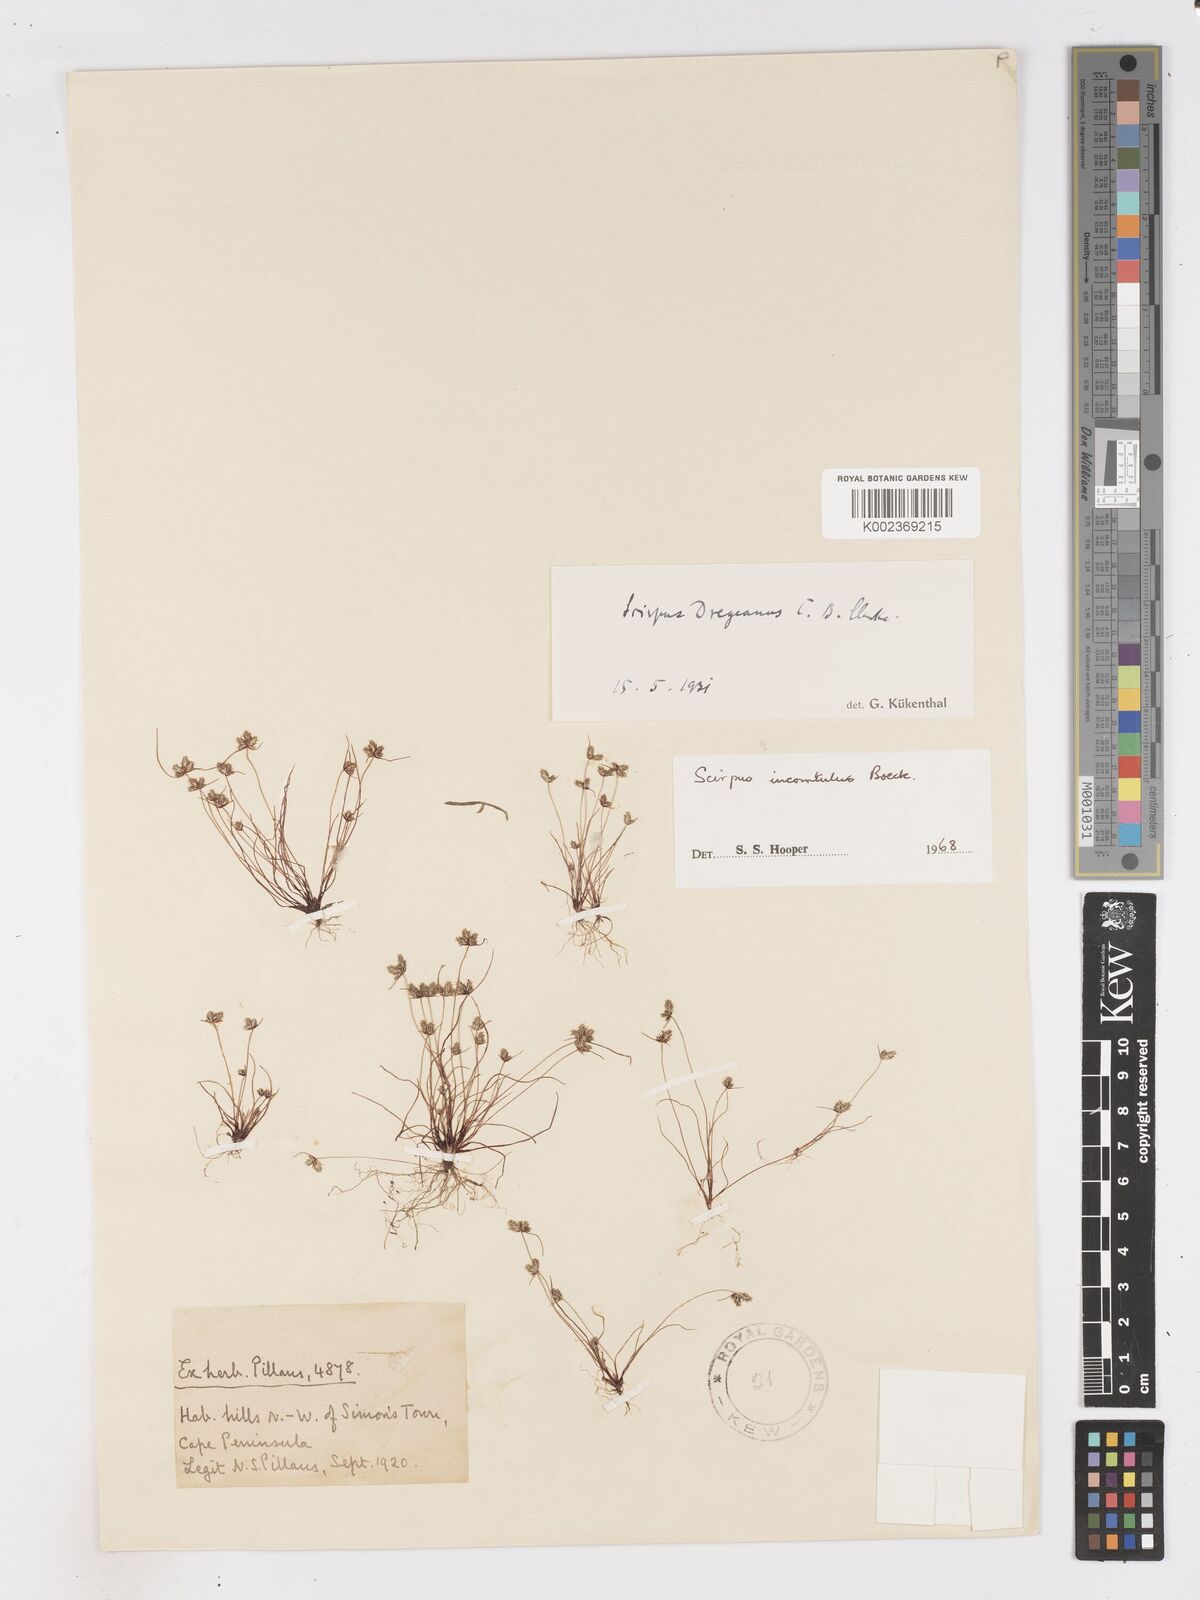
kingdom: Plantae
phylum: Tracheophyta
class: Liliopsida
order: Poales
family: Cyperaceae
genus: Ficinia
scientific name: Ficinia incomtula
